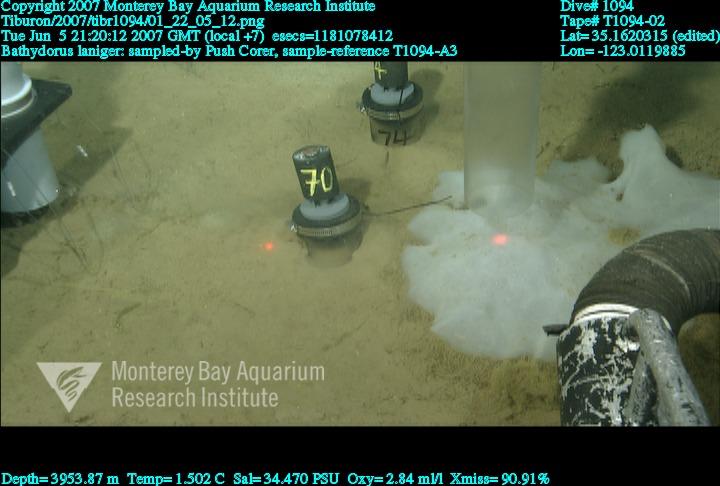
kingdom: Animalia
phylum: Porifera
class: Hexactinellida
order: Lyssacinosida
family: Rossellidae
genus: Bathydorus
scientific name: Bathydorus laniger
